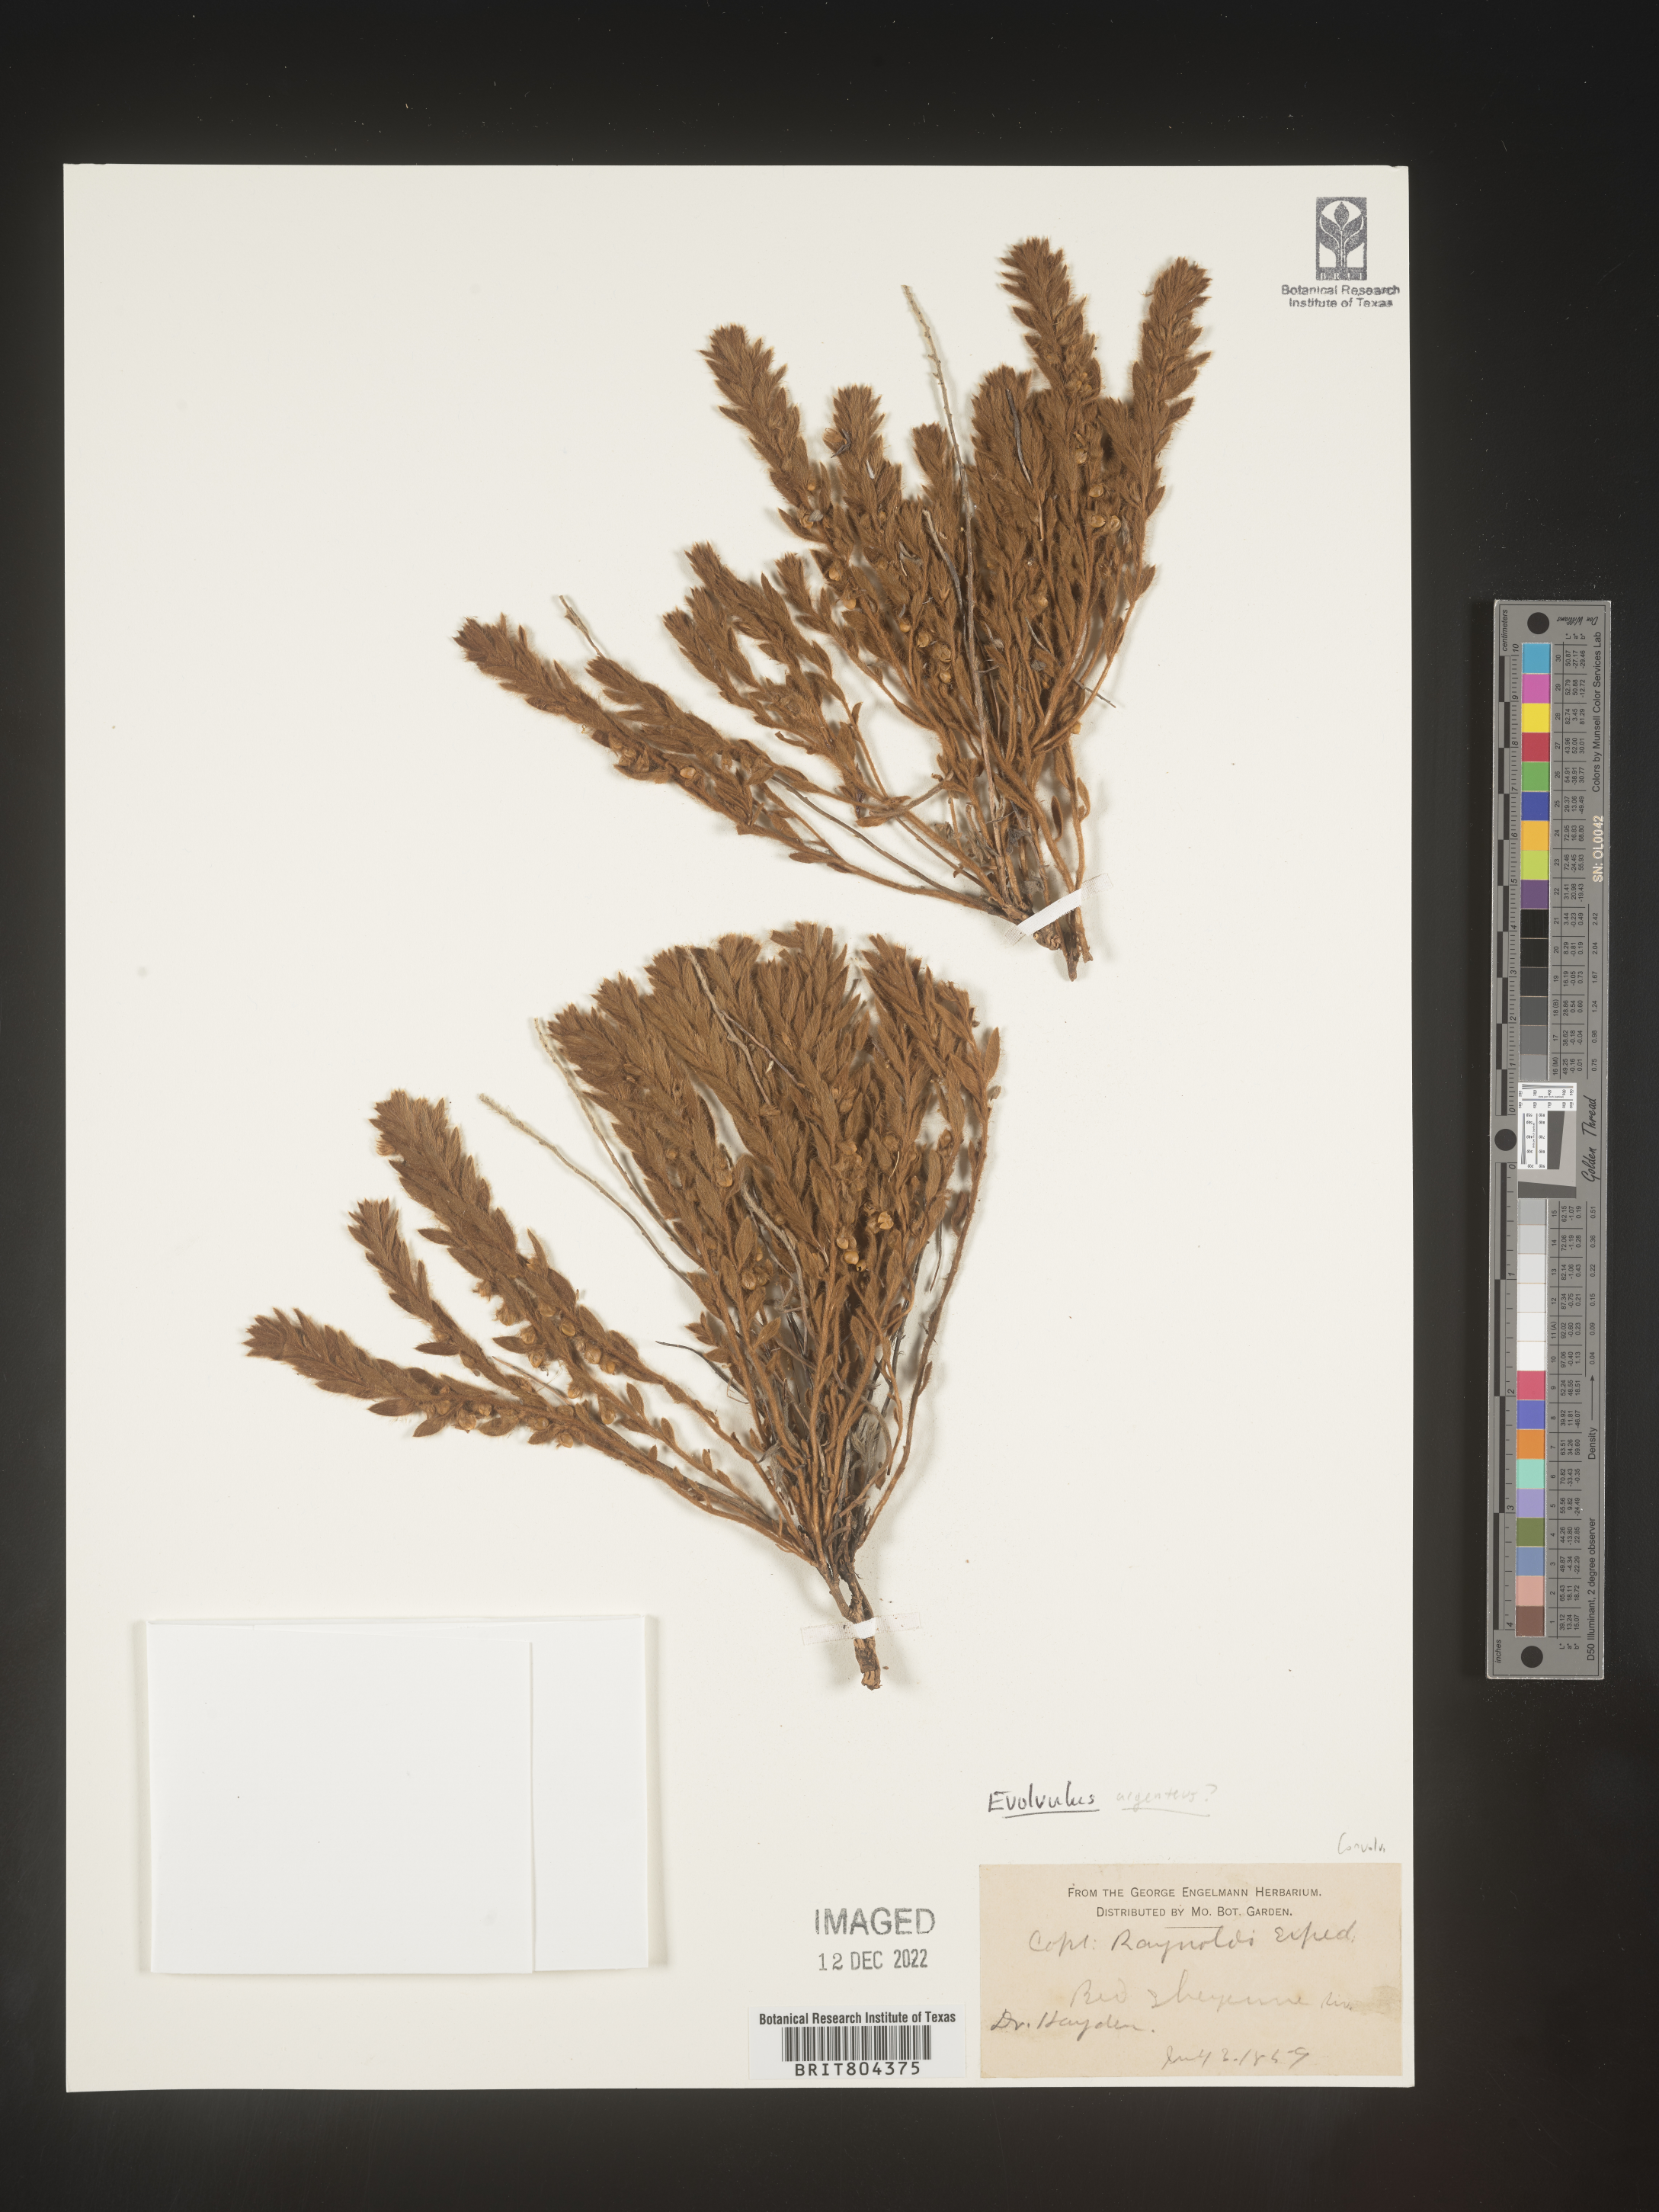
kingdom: Plantae
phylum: Tracheophyta
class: Magnoliopsida
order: Solanales
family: Convolvulaceae
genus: Evolvulus
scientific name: Evolvulus
